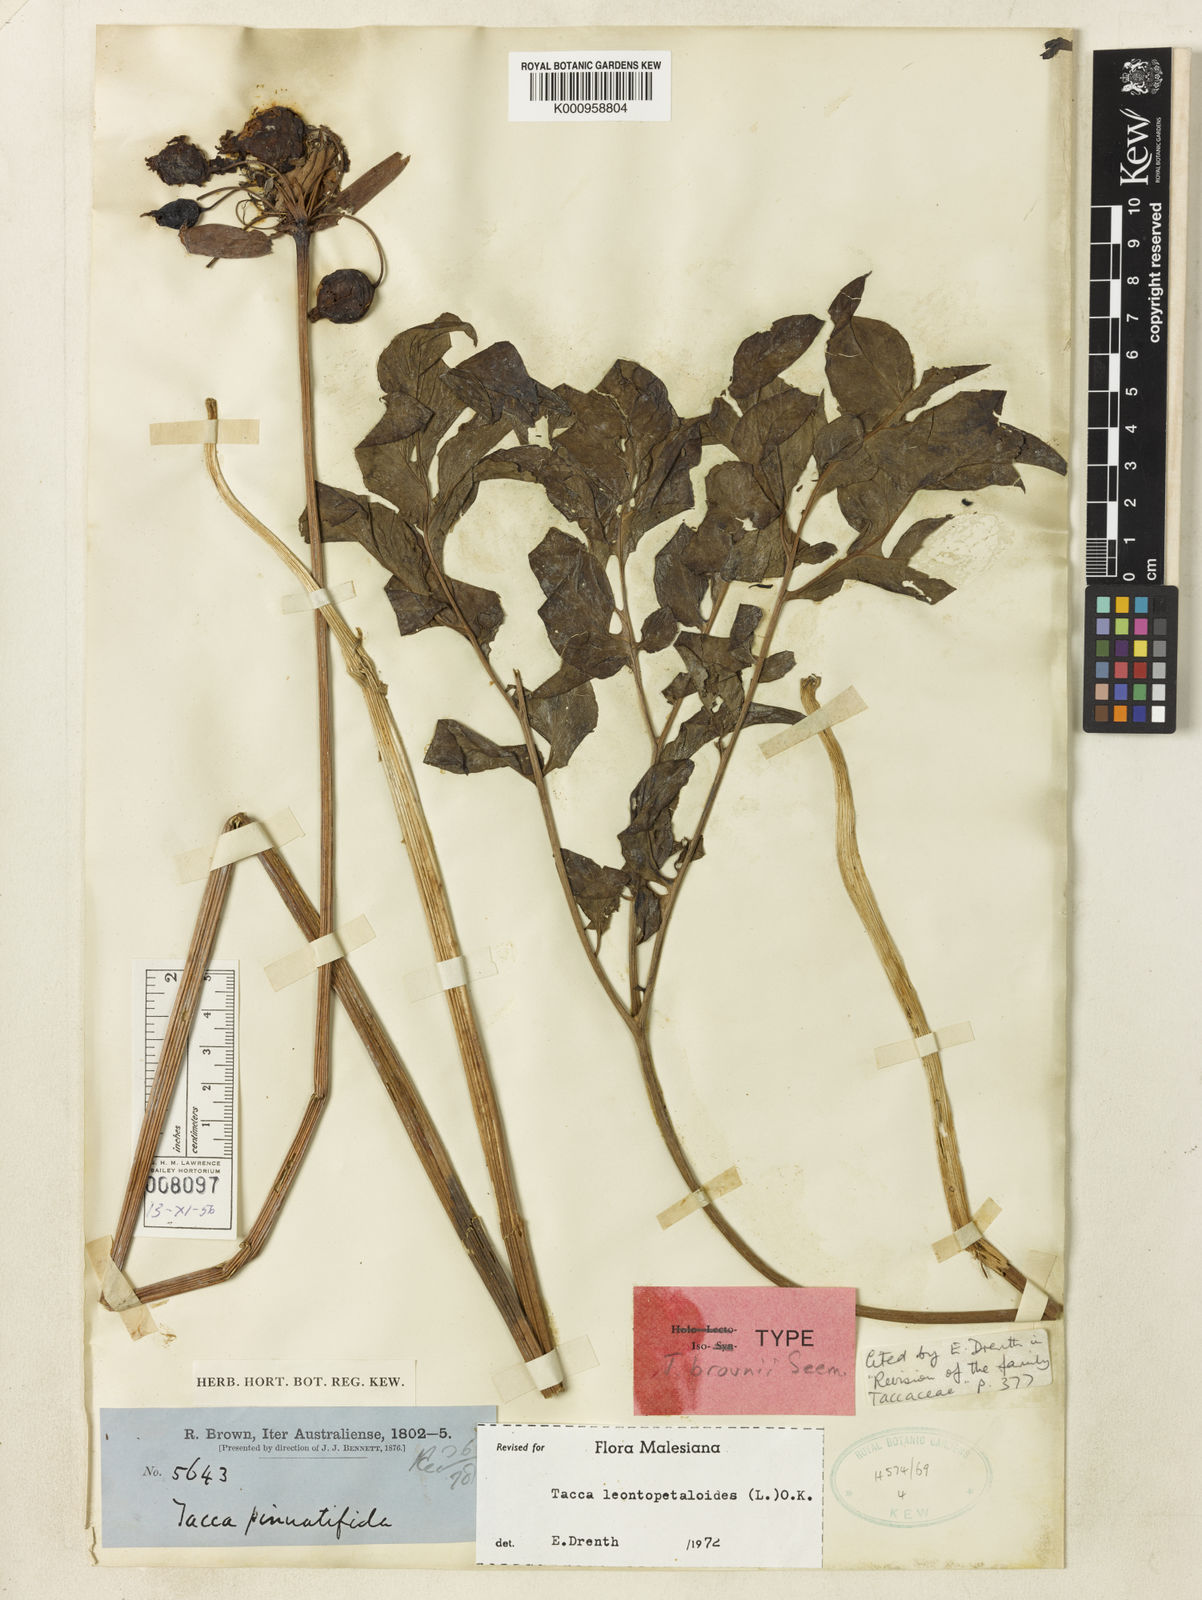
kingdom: Plantae
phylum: Tracheophyta
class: Liliopsida
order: Dioscoreales
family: Dioscoreaceae
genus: Tacca
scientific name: Tacca leontopetaloides
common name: Arrowroot
